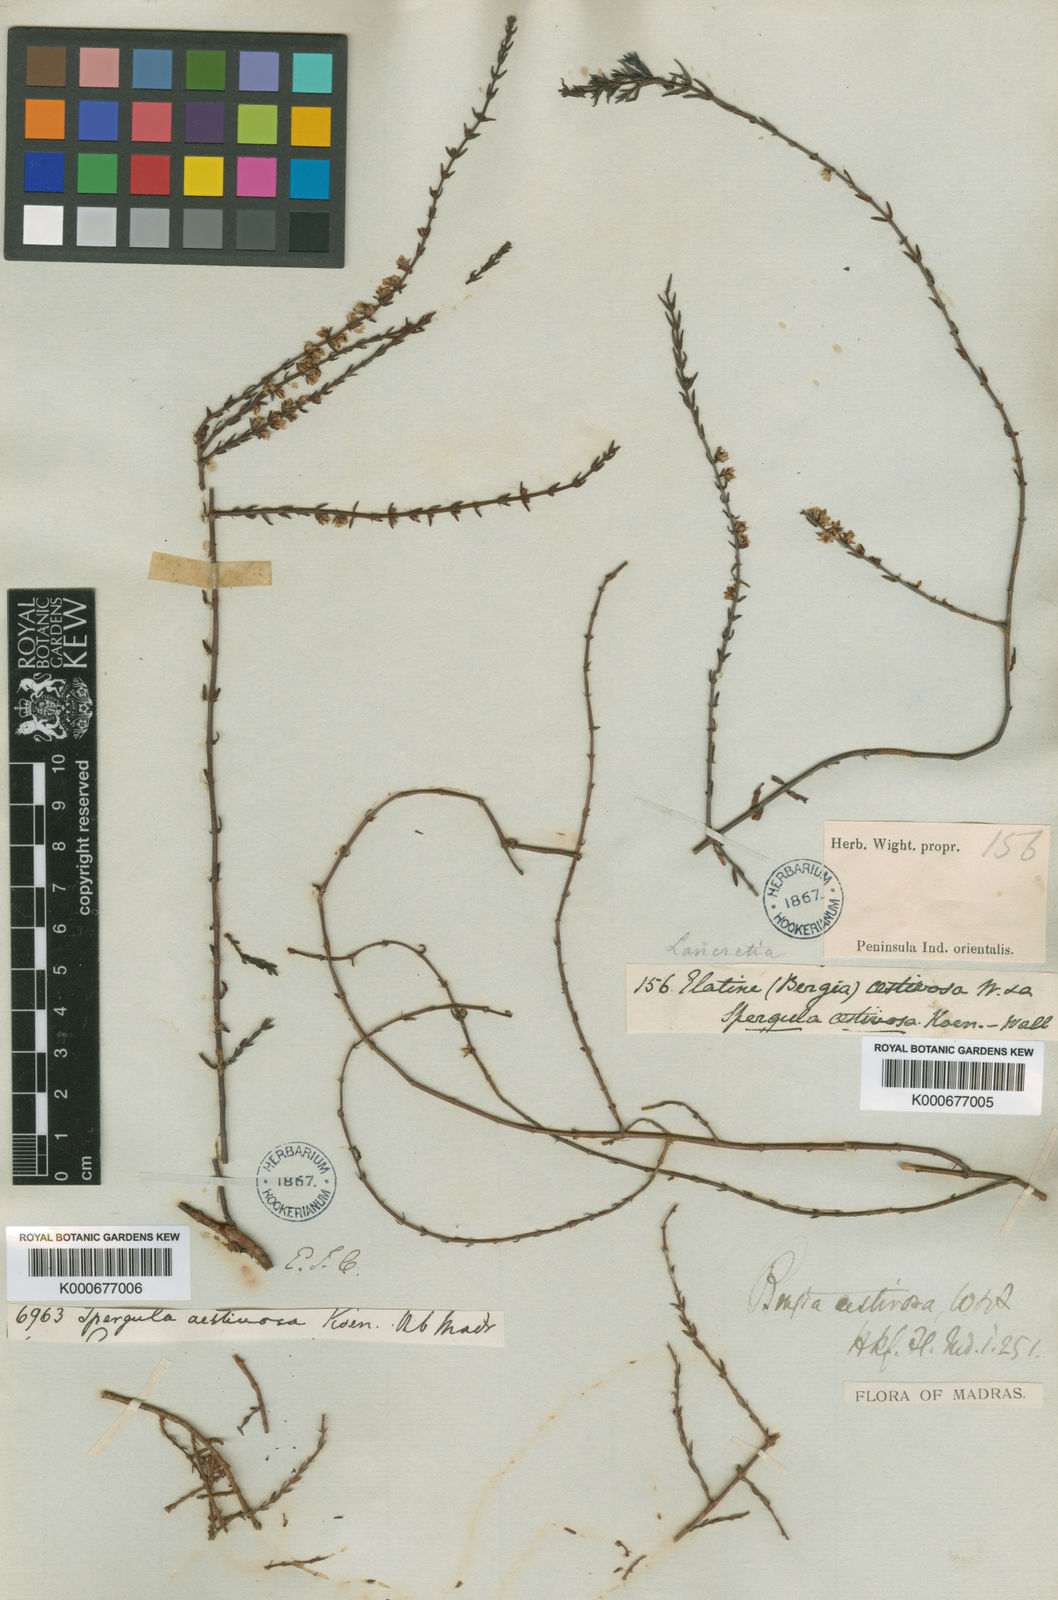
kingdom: Plantae
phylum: Tracheophyta
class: Magnoliopsida
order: Malpighiales
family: Elatinaceae
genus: Bergia
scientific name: Bergia aestivosa
